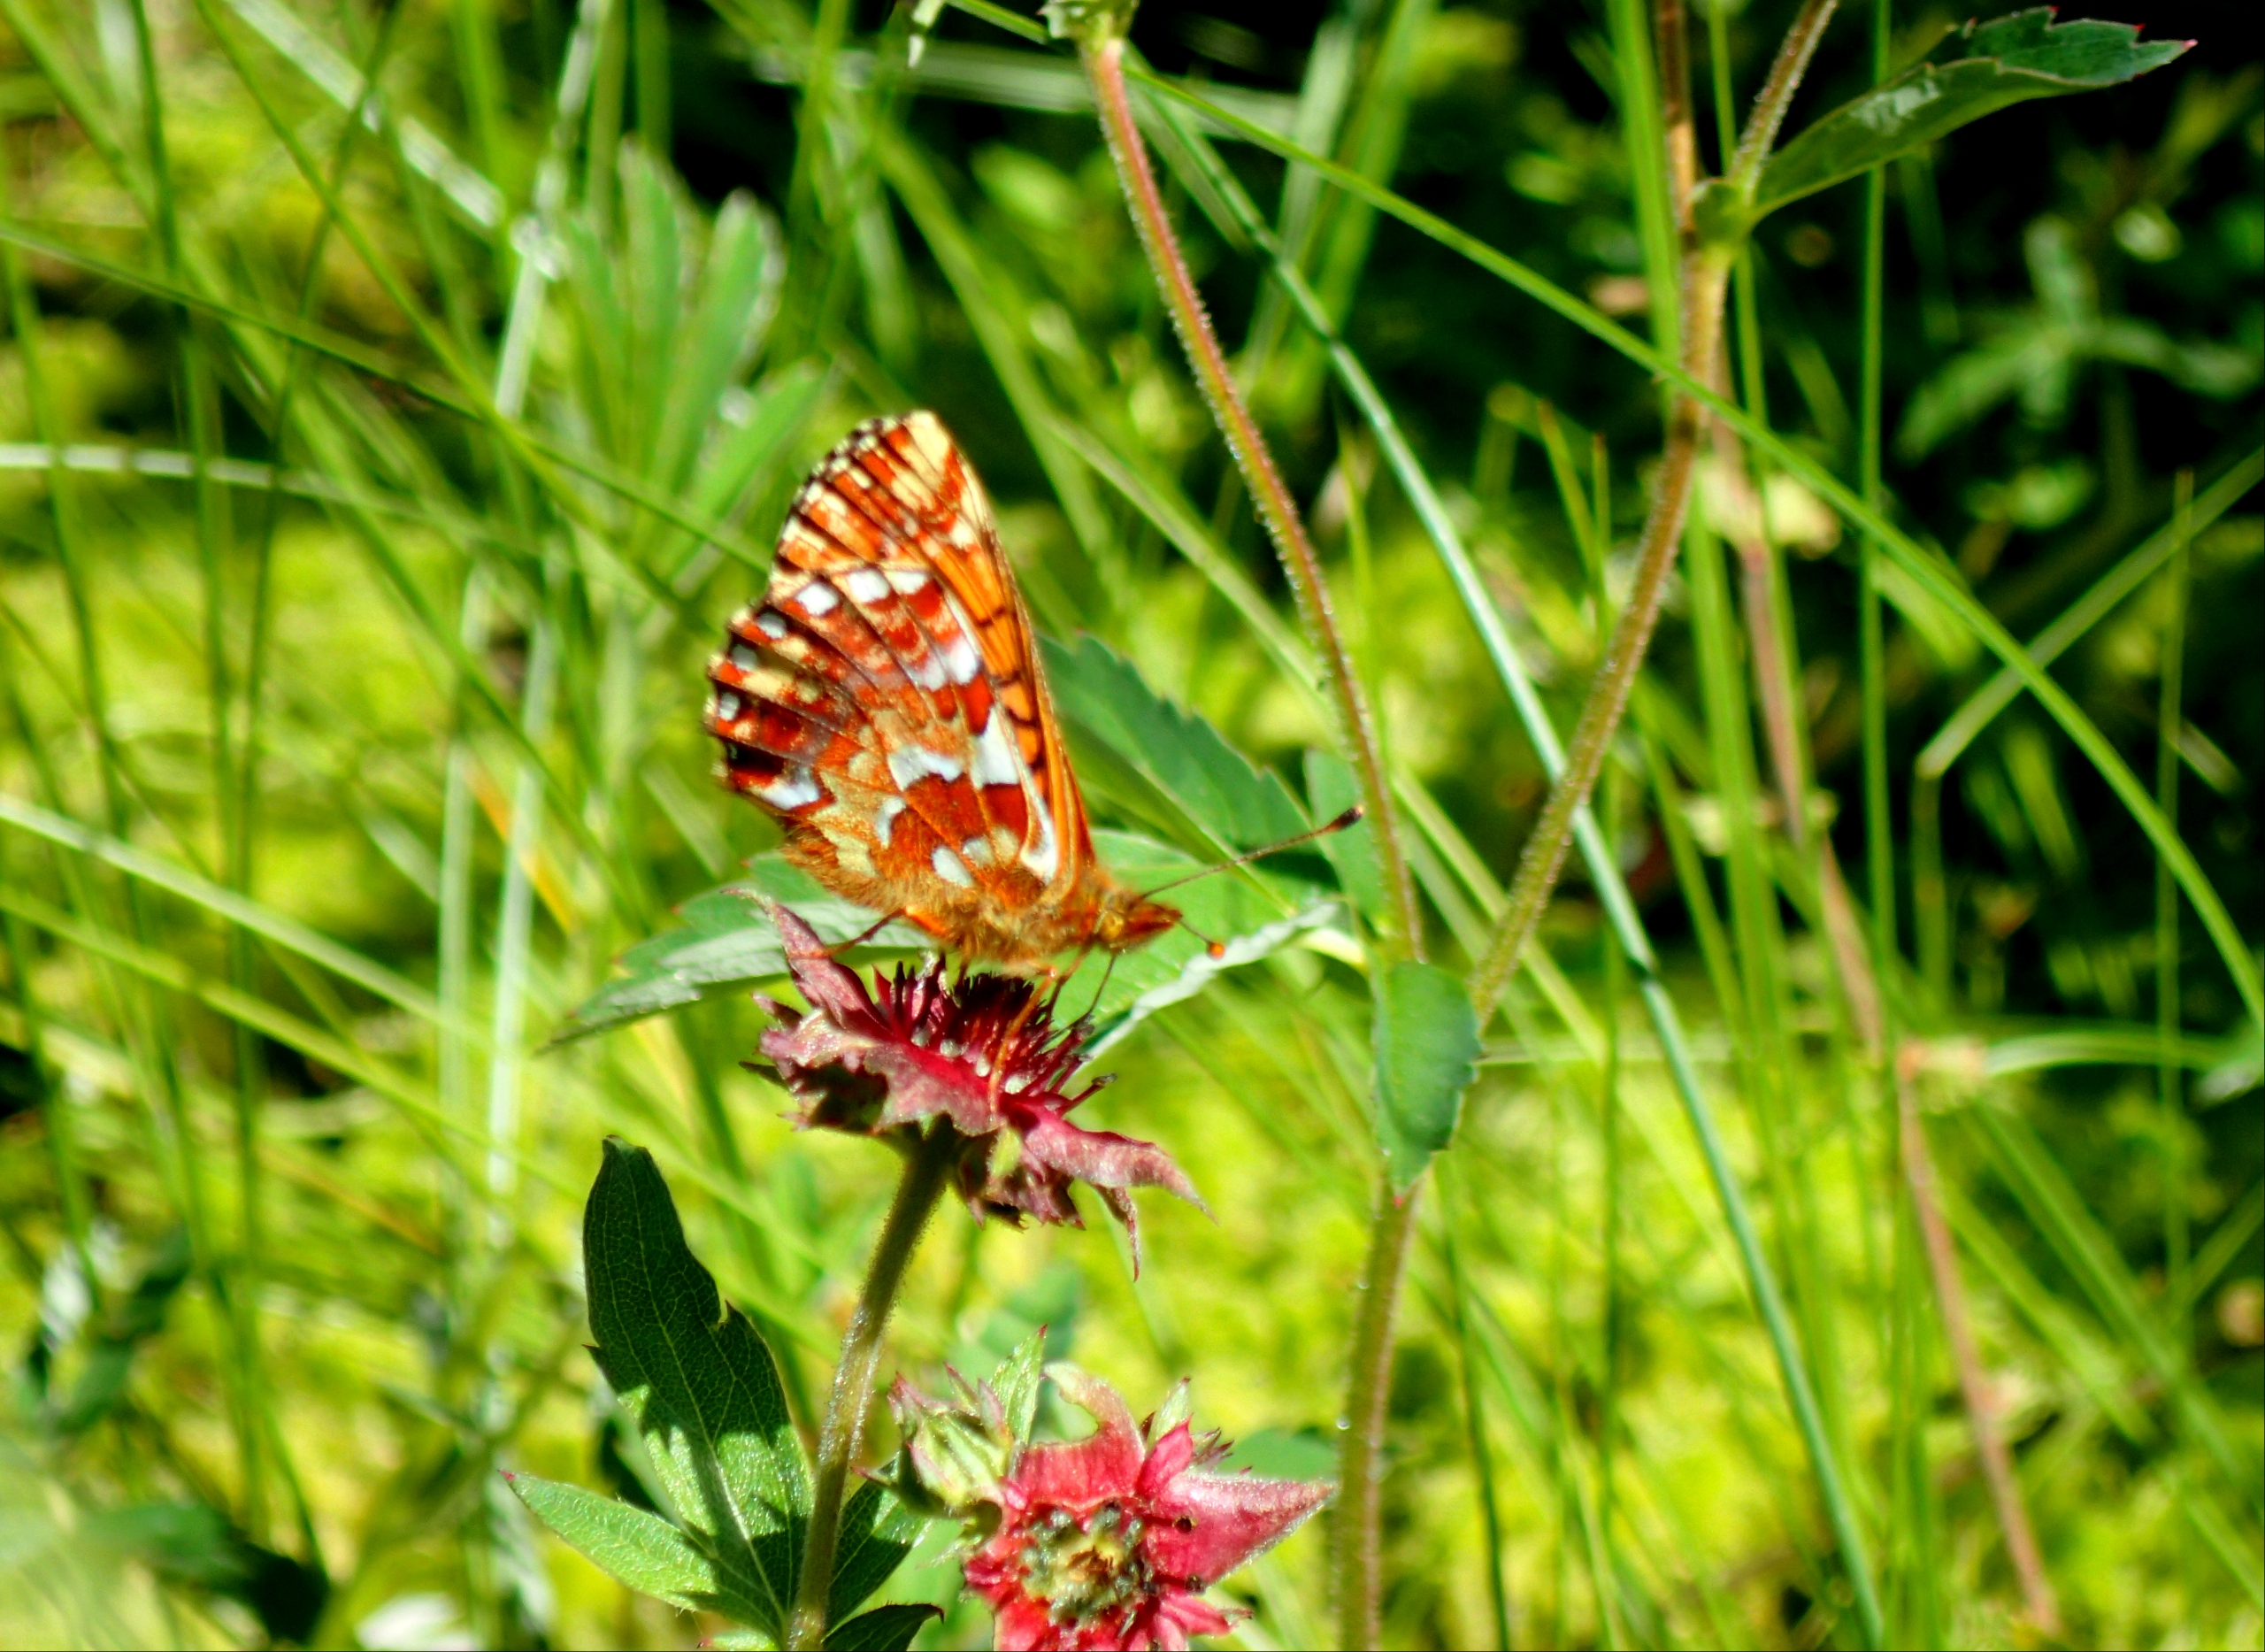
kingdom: Animalia
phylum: Arthropoda
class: Insecta
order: Lepidoptera
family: Nymphalidae
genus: Boloria
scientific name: Boloria aquilonaris
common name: Moseperlemorsommerfugl
